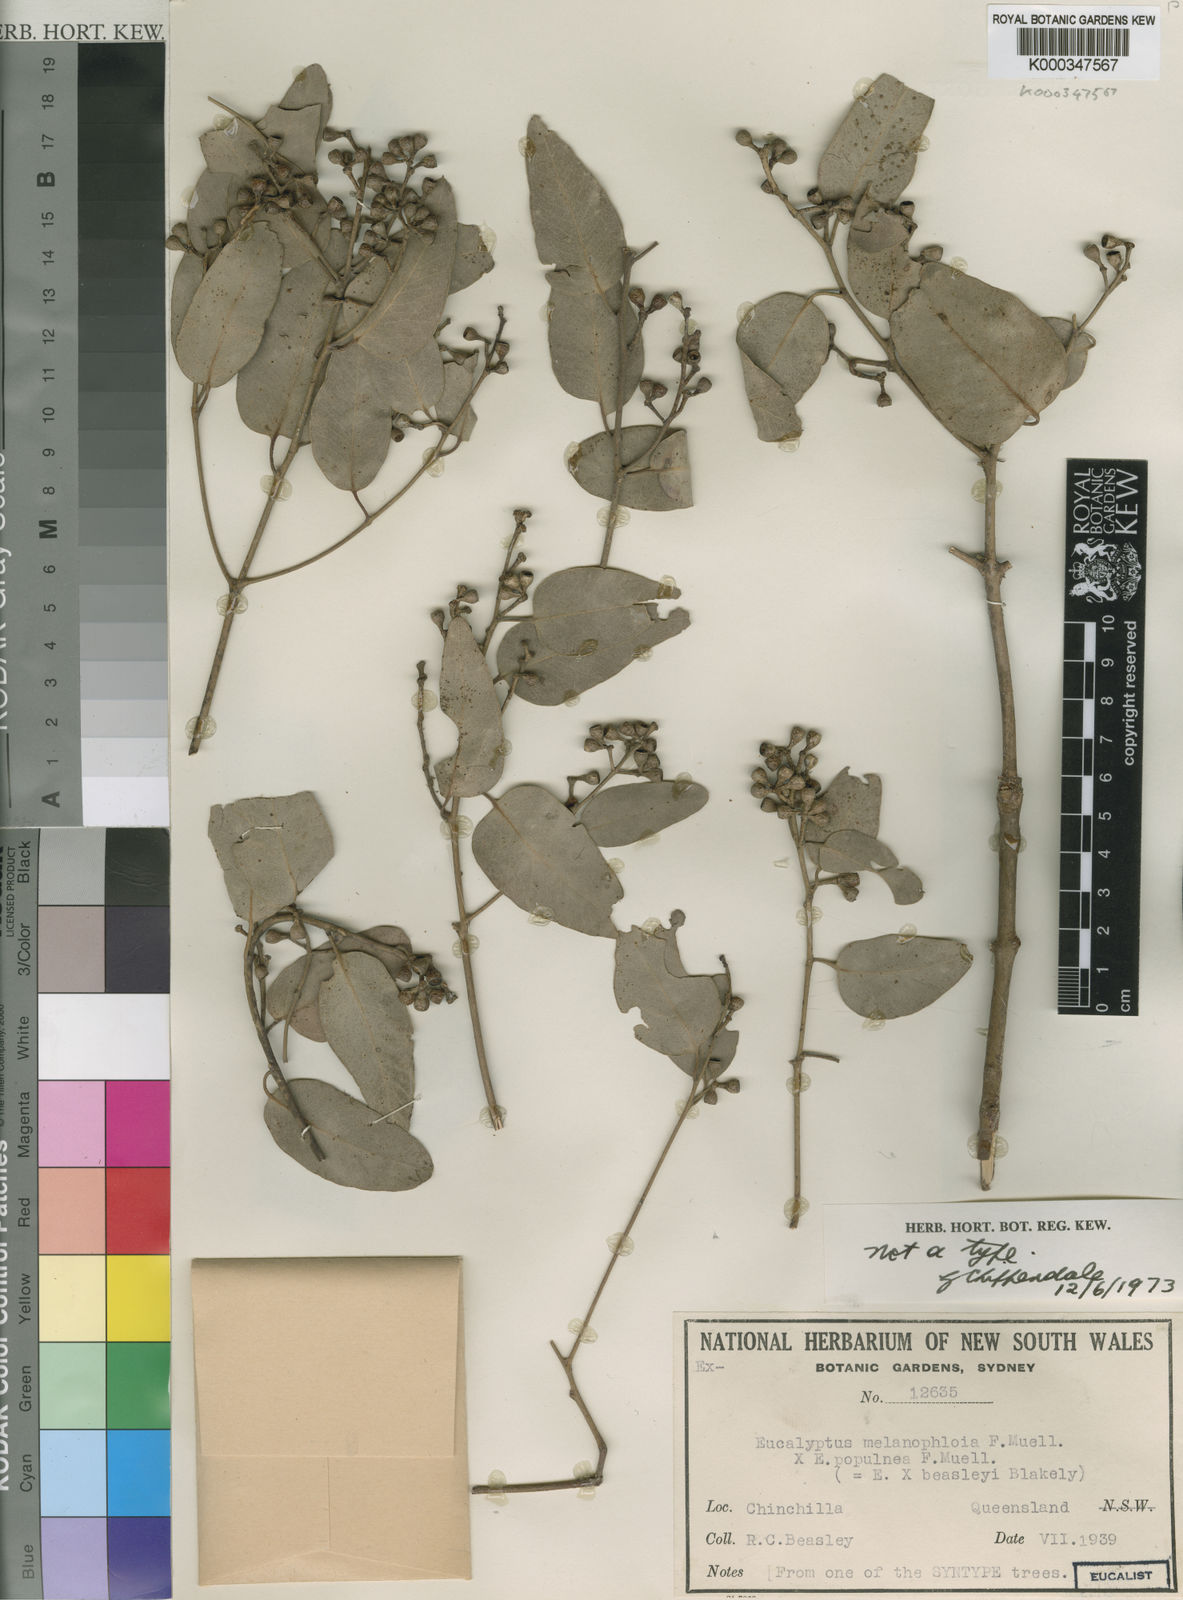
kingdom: Plantae
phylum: Tracheophyta
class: Magnoliopsida
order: Myrtales
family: Myrtaceae
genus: Eucalyptus
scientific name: Eucalyptus beaselyi
